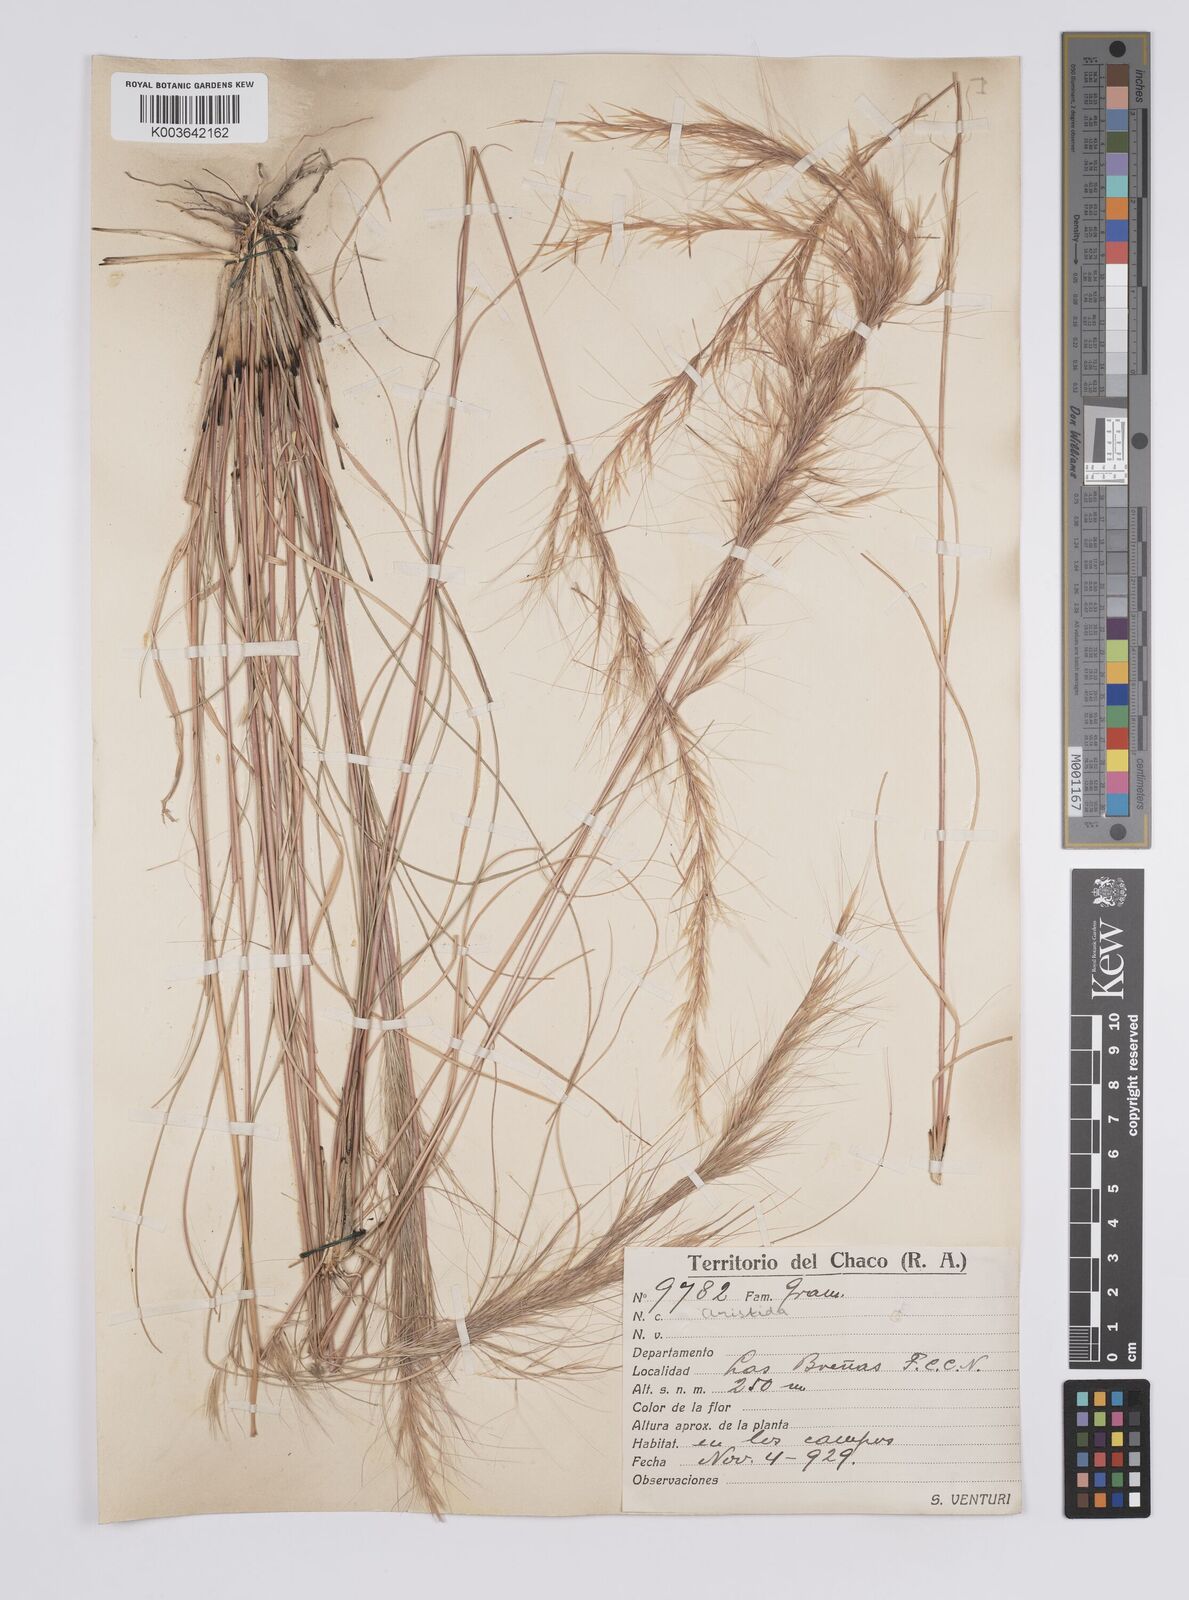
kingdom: Plantae
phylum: Tracheophyta
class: Liliopsida
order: Poales
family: Poaceae
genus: Aristida
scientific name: Aristida
